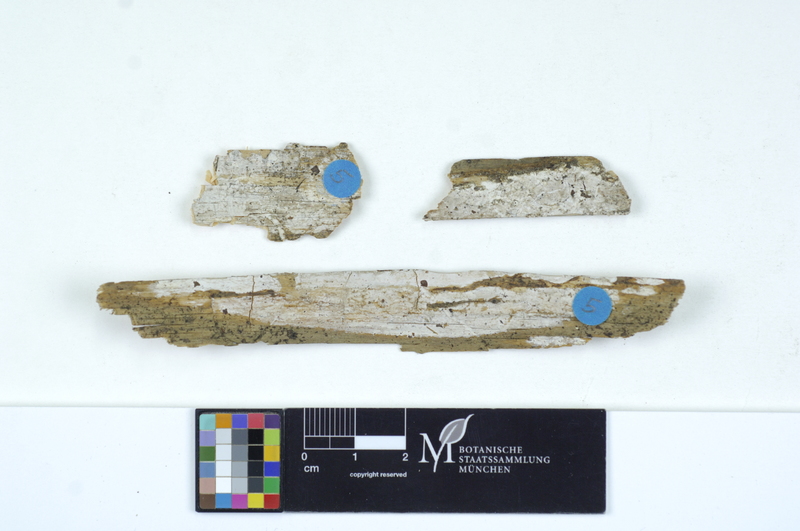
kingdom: Plantae
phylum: Tracheophyta
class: Pinopsida
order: Pinales
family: Pinaceae
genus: Picea
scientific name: Picea
